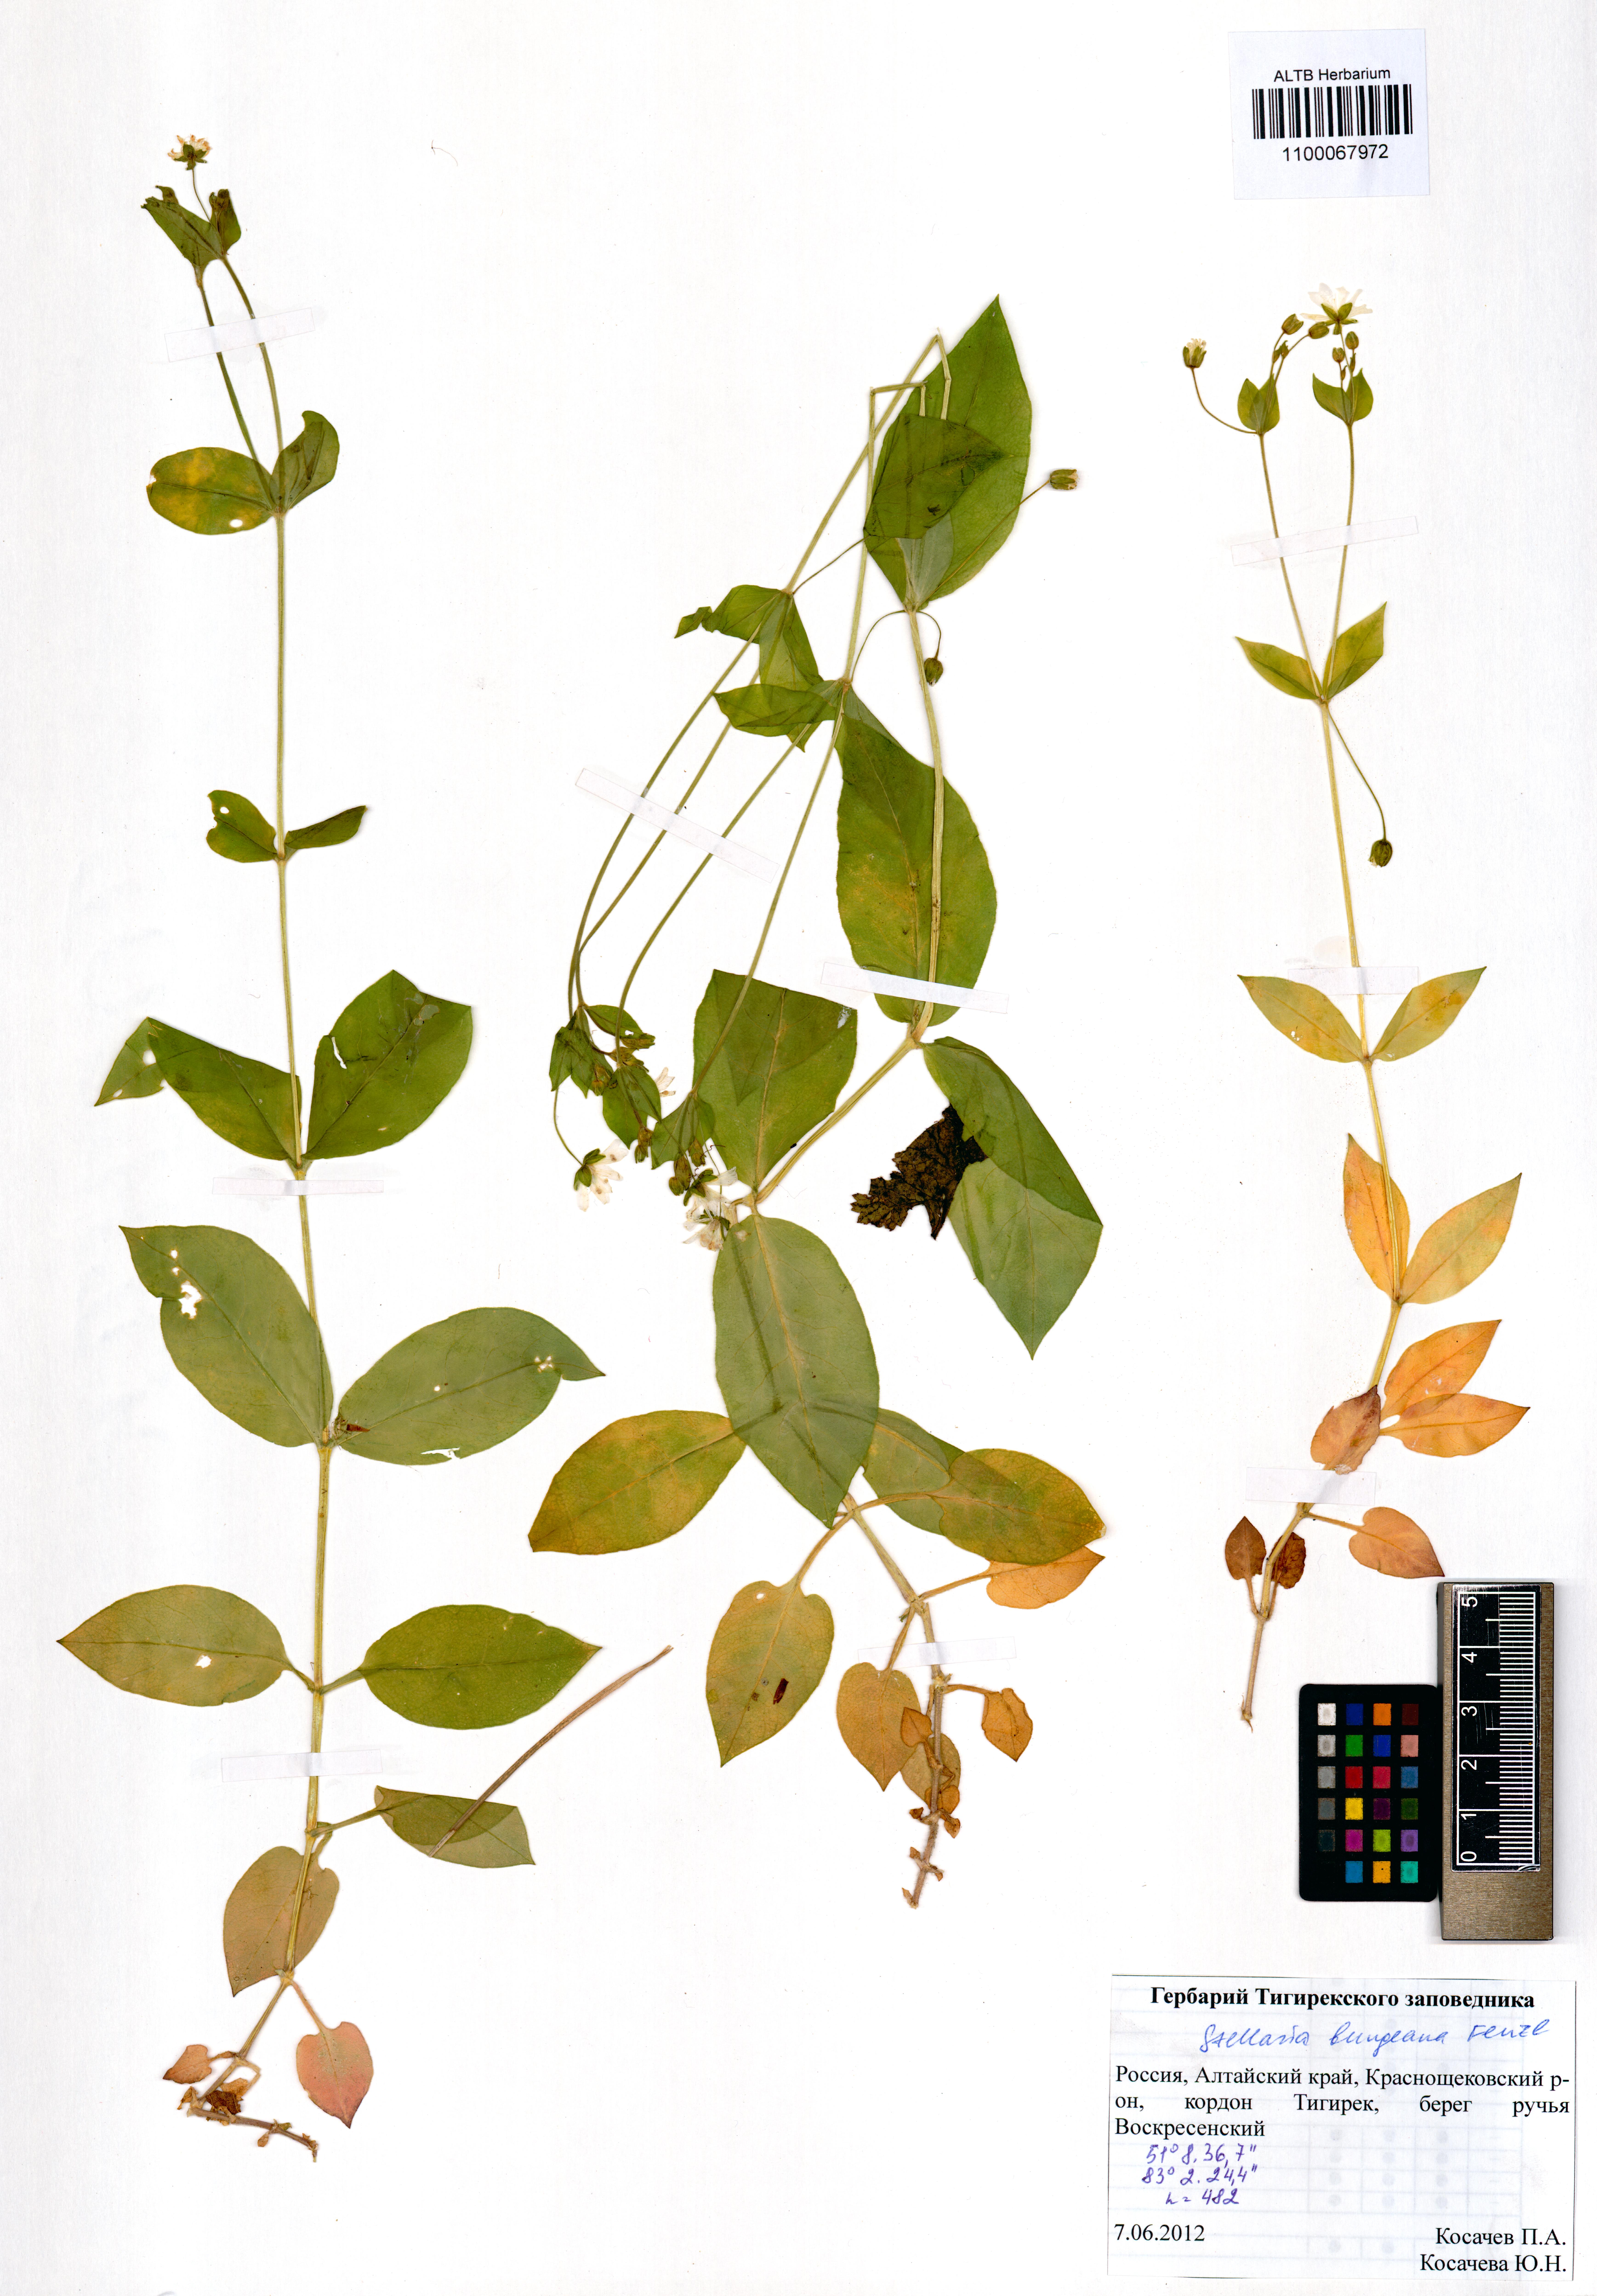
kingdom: Plantae
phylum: Tracheophyta
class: Magnoliopsida
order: Caryophyllales
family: Caryophyllaceae
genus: Stellaria
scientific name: Stellaria bungeana
